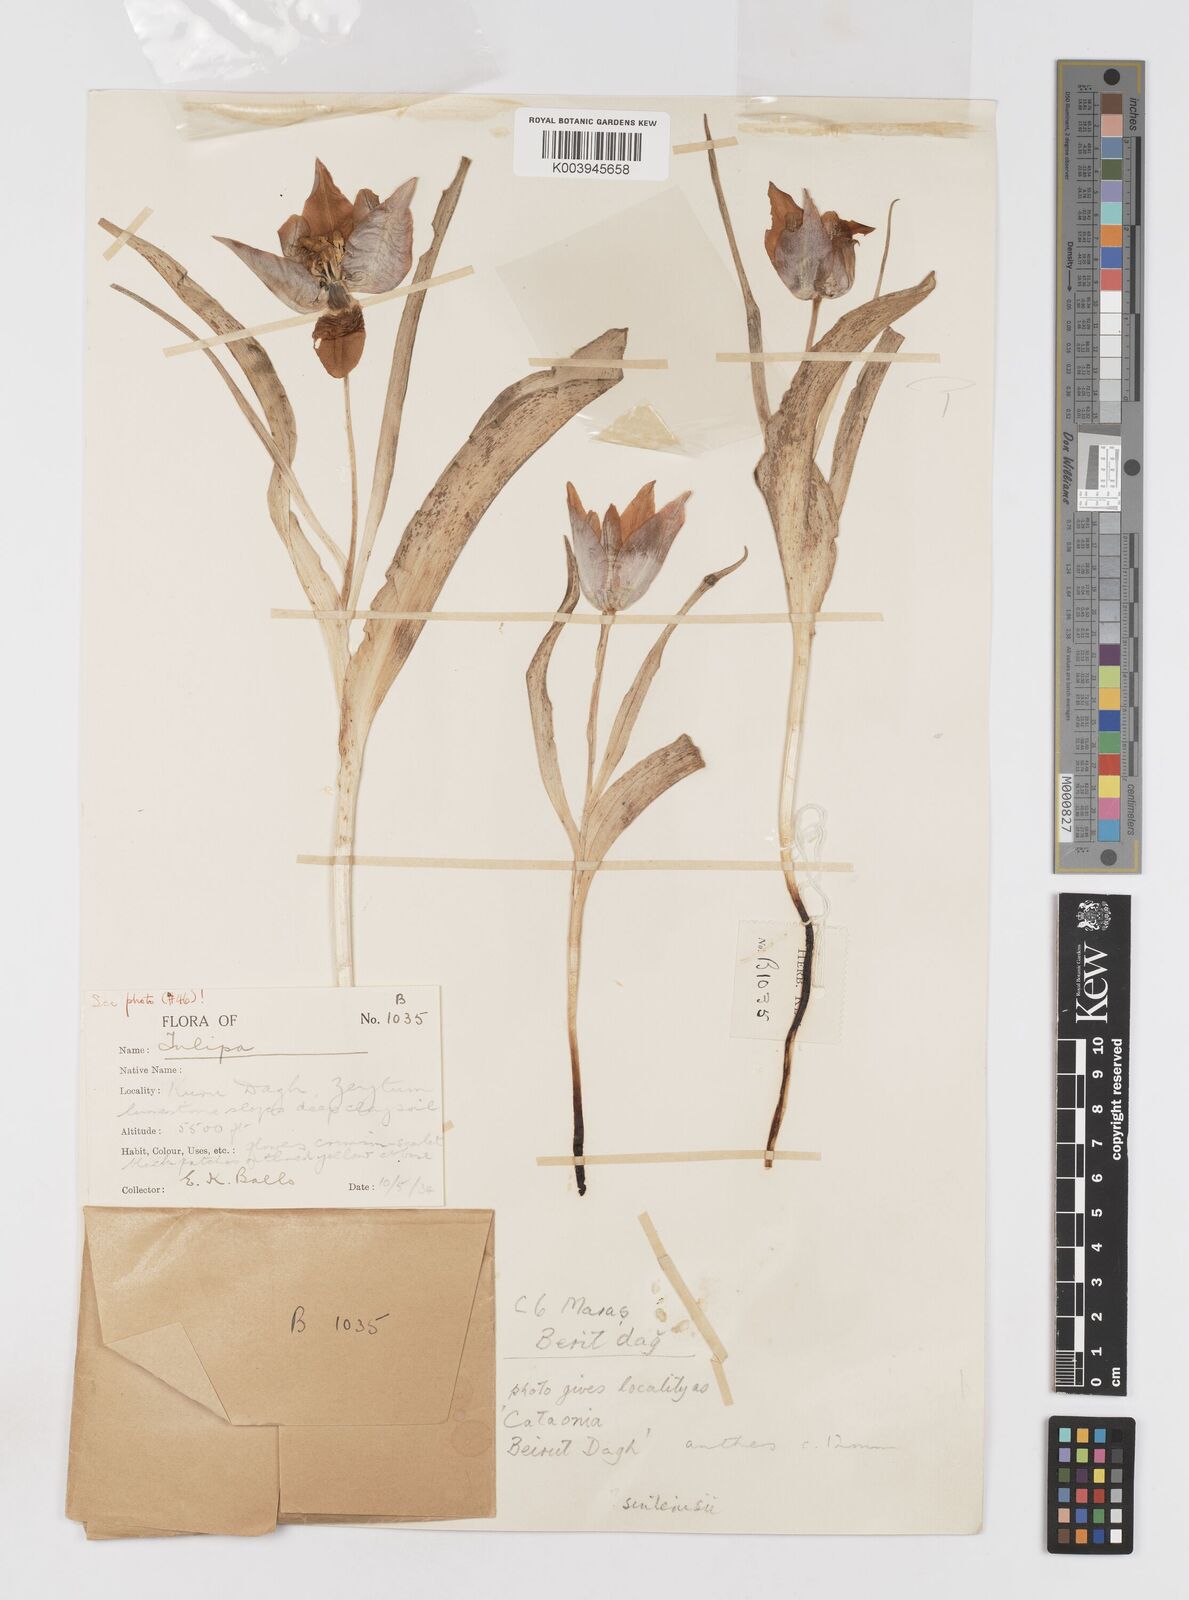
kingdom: Plantae
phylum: Tracheophyta
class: Liliopsida
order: Liliales
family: Liliaceae
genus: Tulipa
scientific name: Tulipa aleppensis
